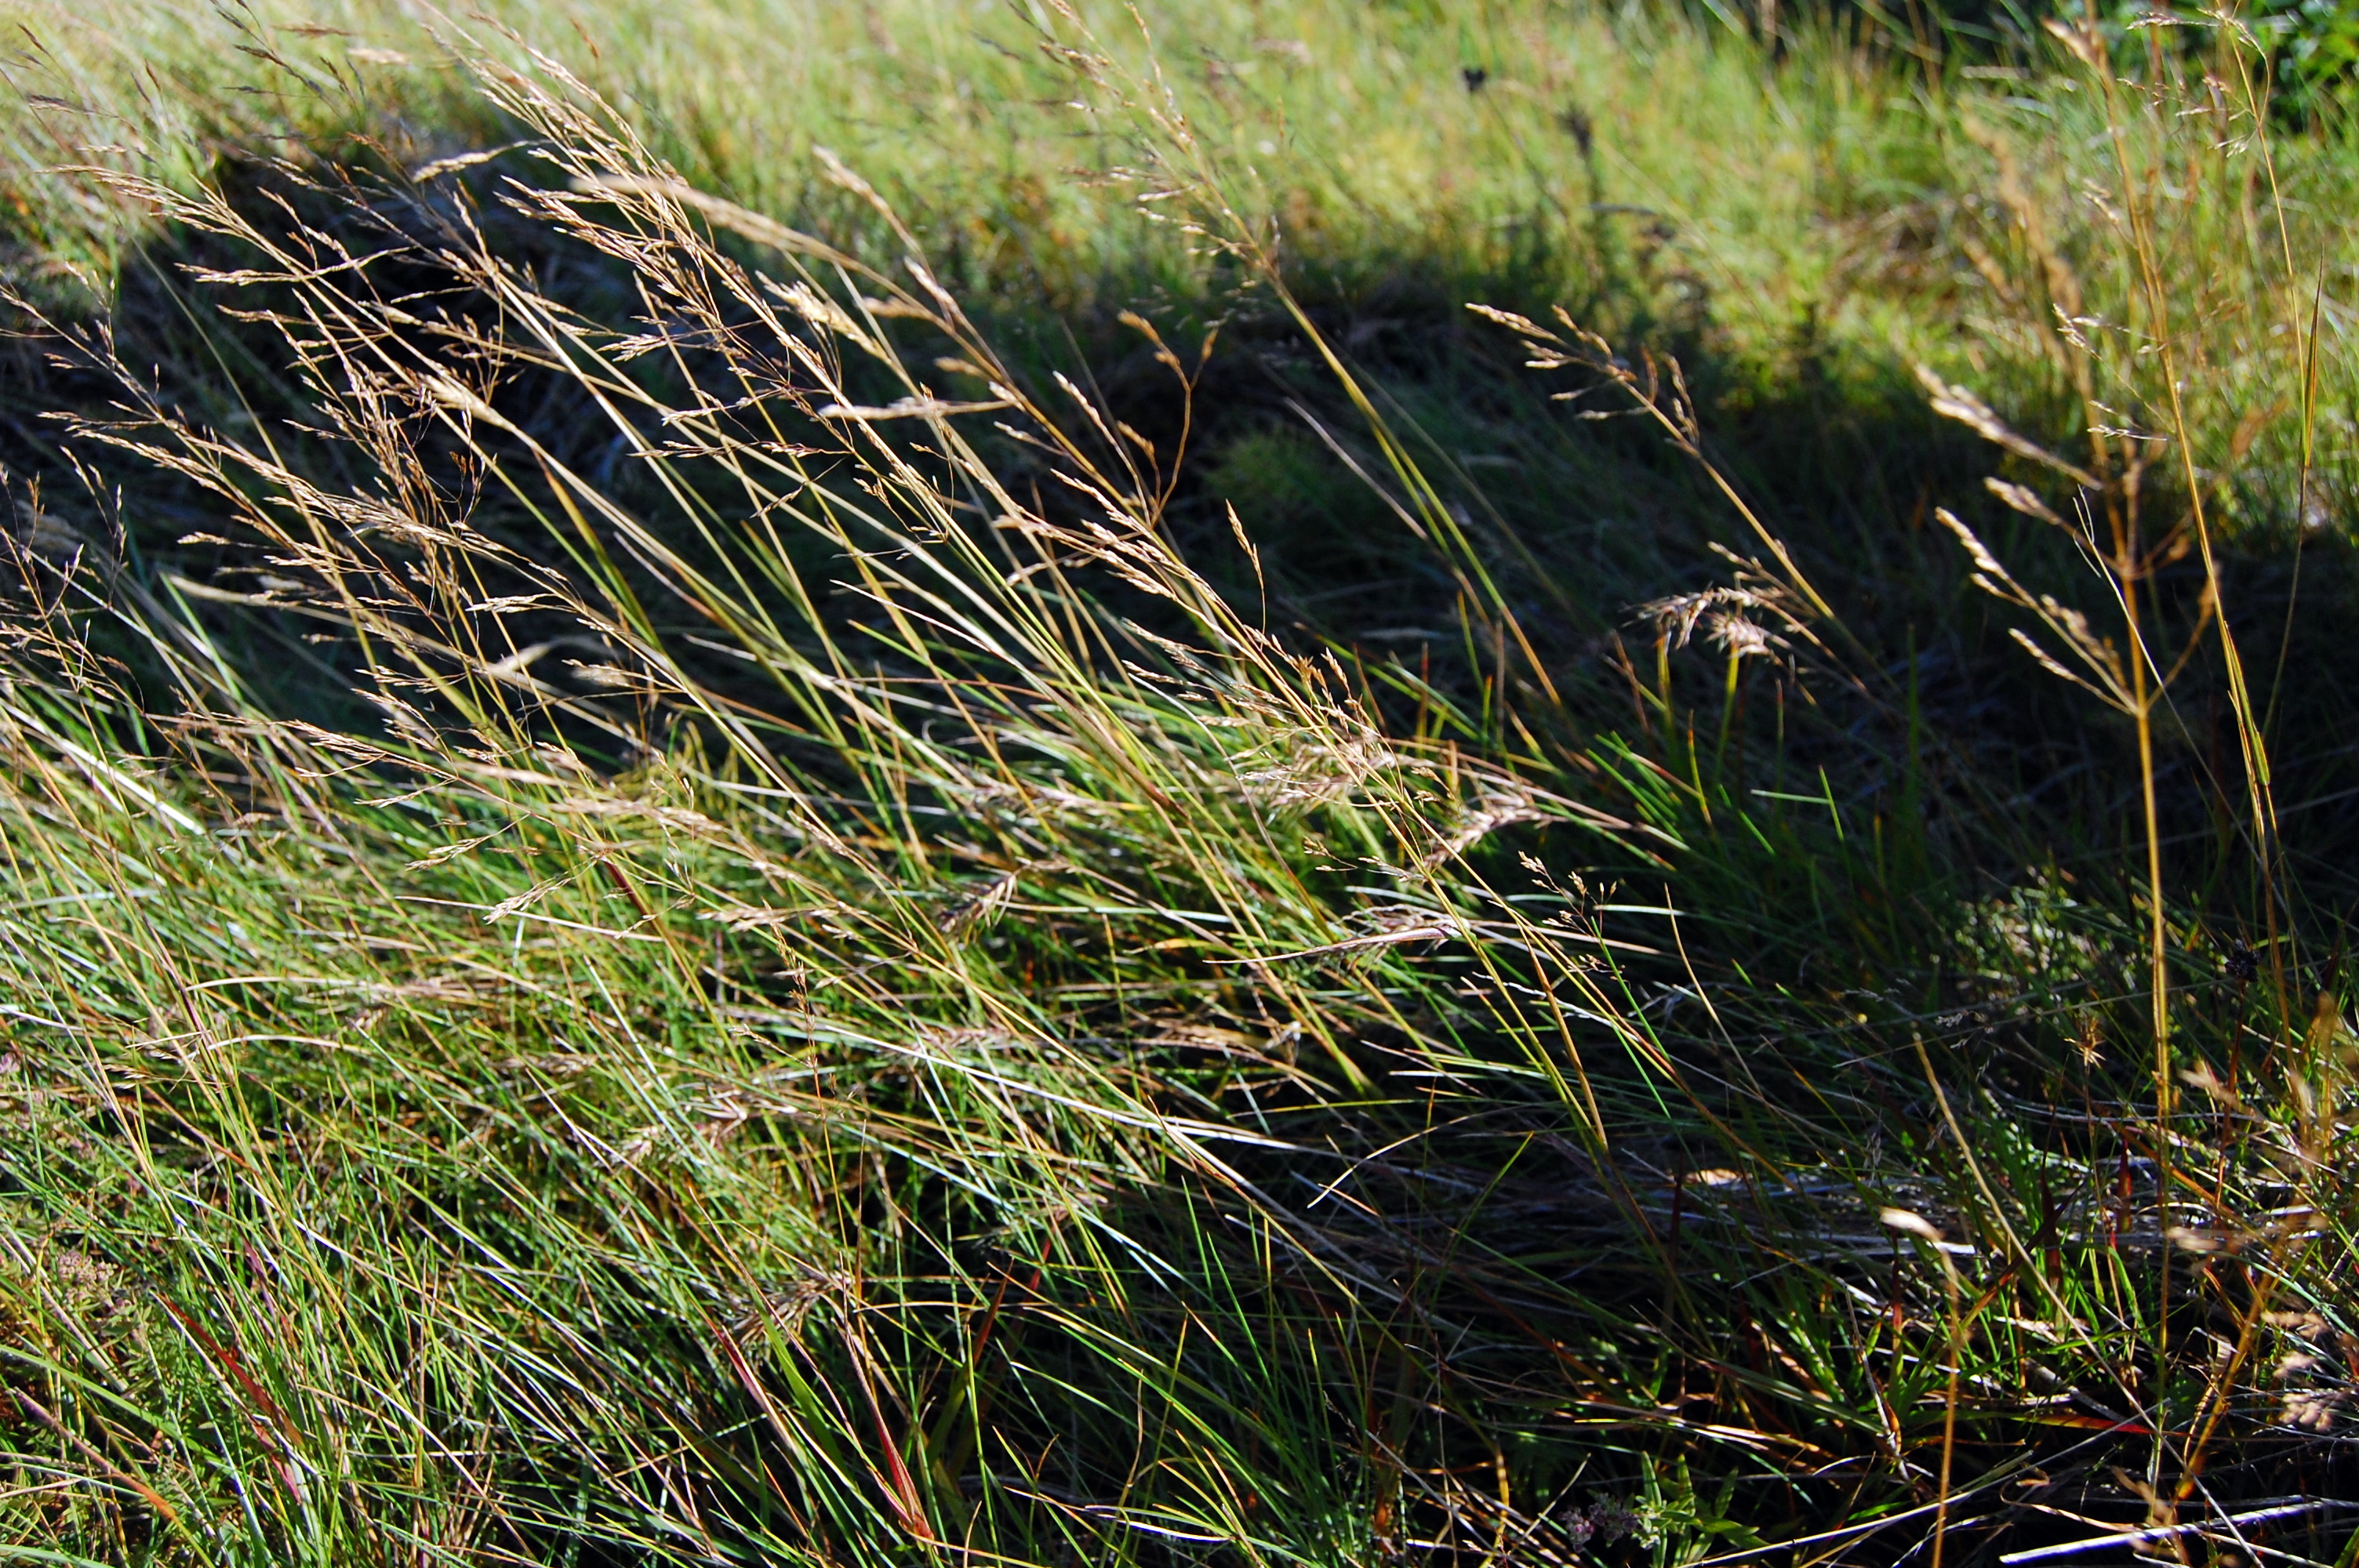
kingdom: Plantae
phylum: Tracheophyta
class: Liliopsida
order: Poales
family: Poaceae
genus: Agrostis
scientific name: Agrostis capillaris
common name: Colonial bentgrass
